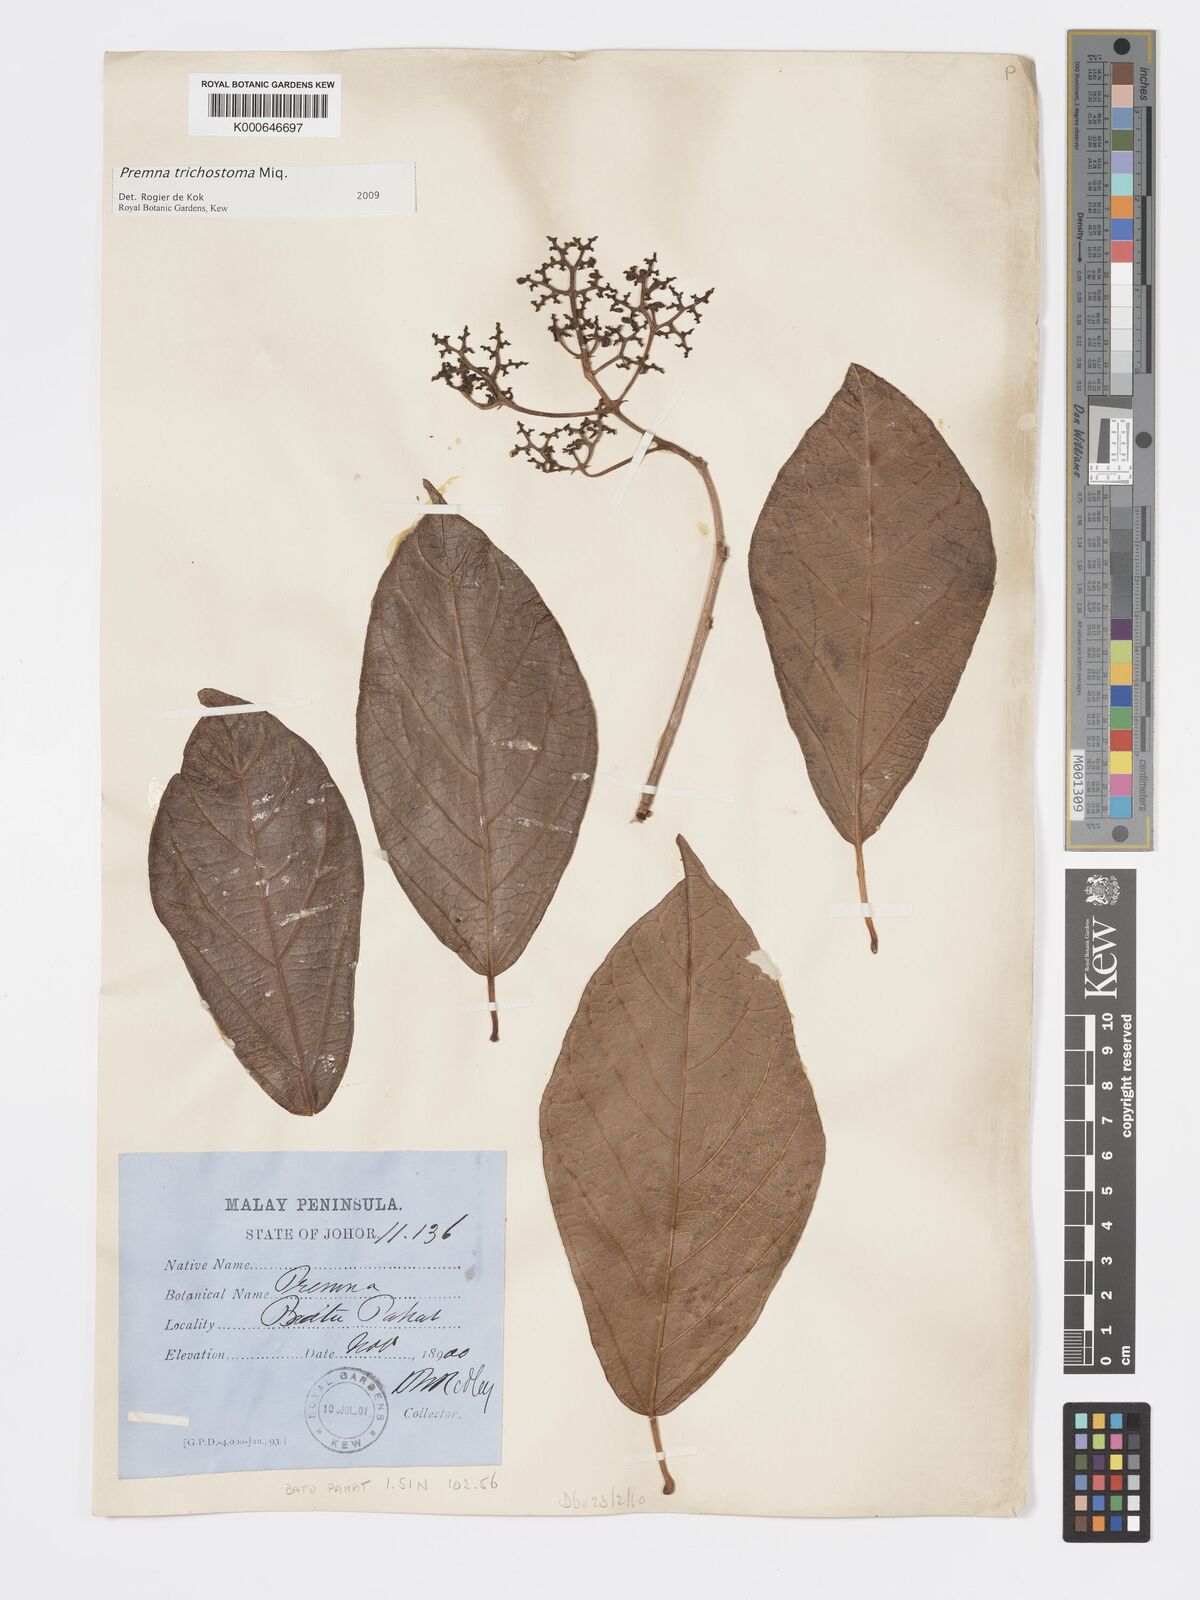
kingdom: Plantae
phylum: Tracheophyta
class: Magnoliopsida
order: Lamiales
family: Lamiaceae
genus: Premna
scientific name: Premna trichostoma
